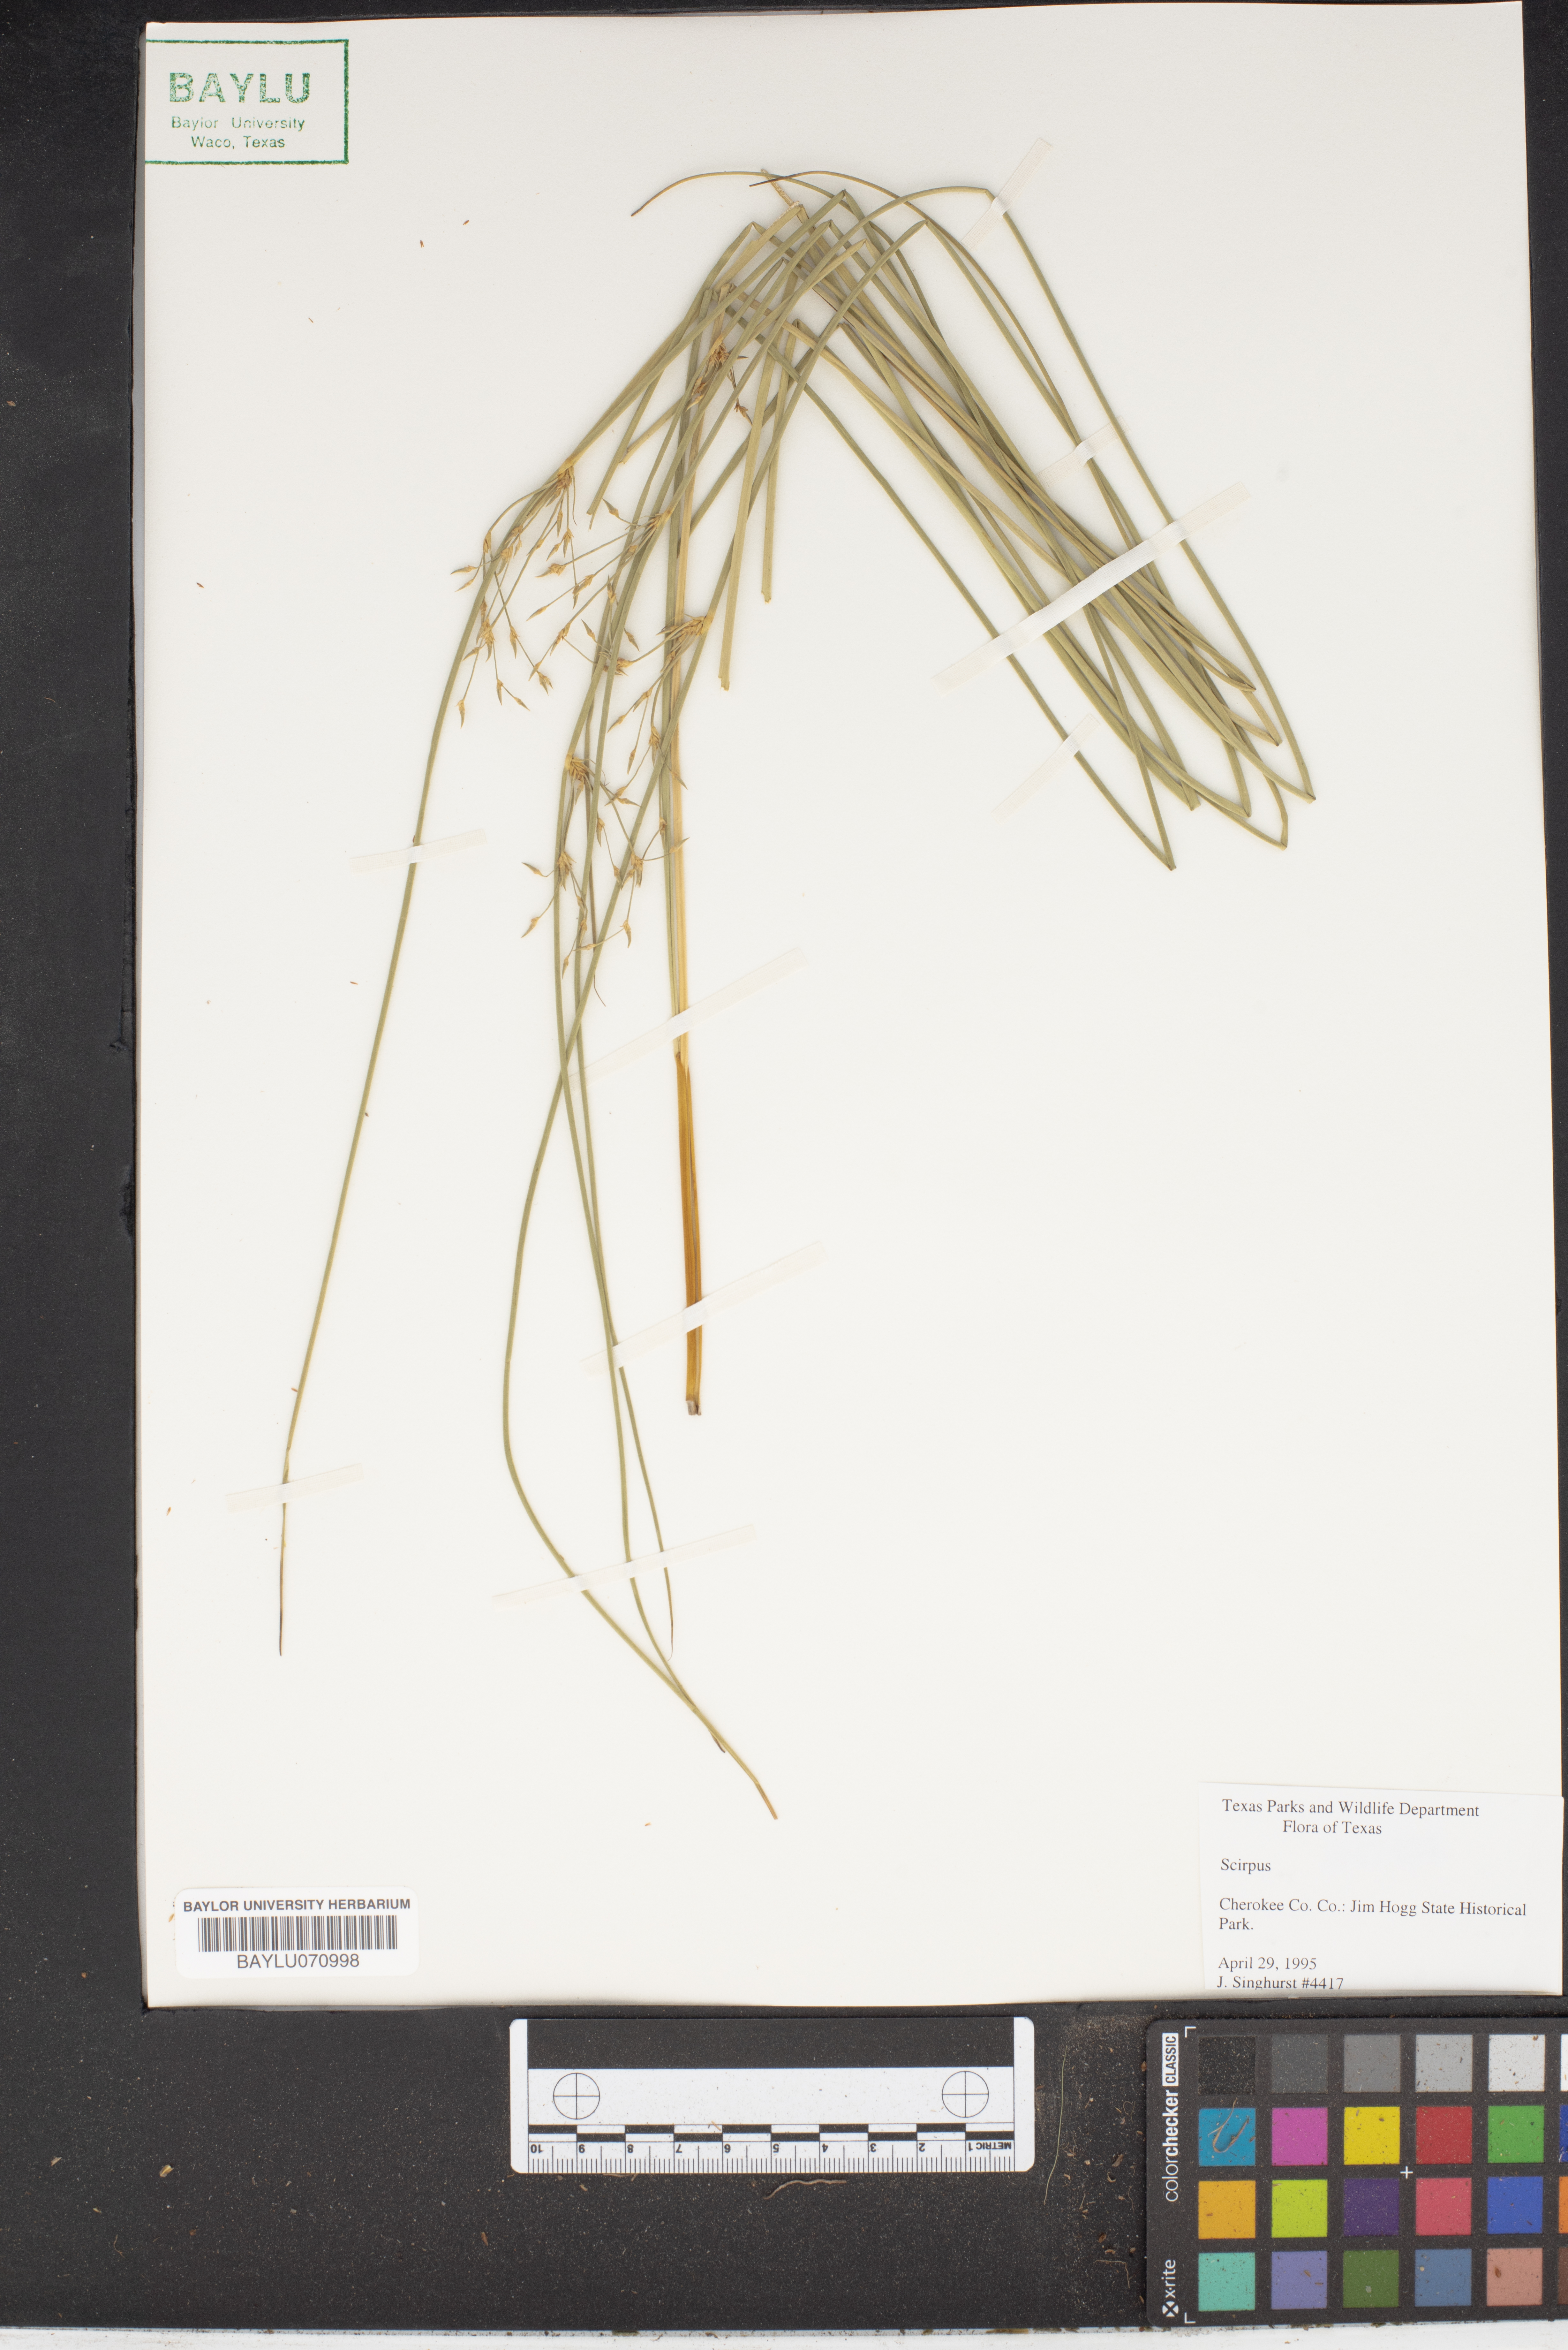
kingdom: Plantae
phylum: Tracheophyta
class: Liliopsida
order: Poales
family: Cyperaceae
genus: Scirpus
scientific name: Scirpus
